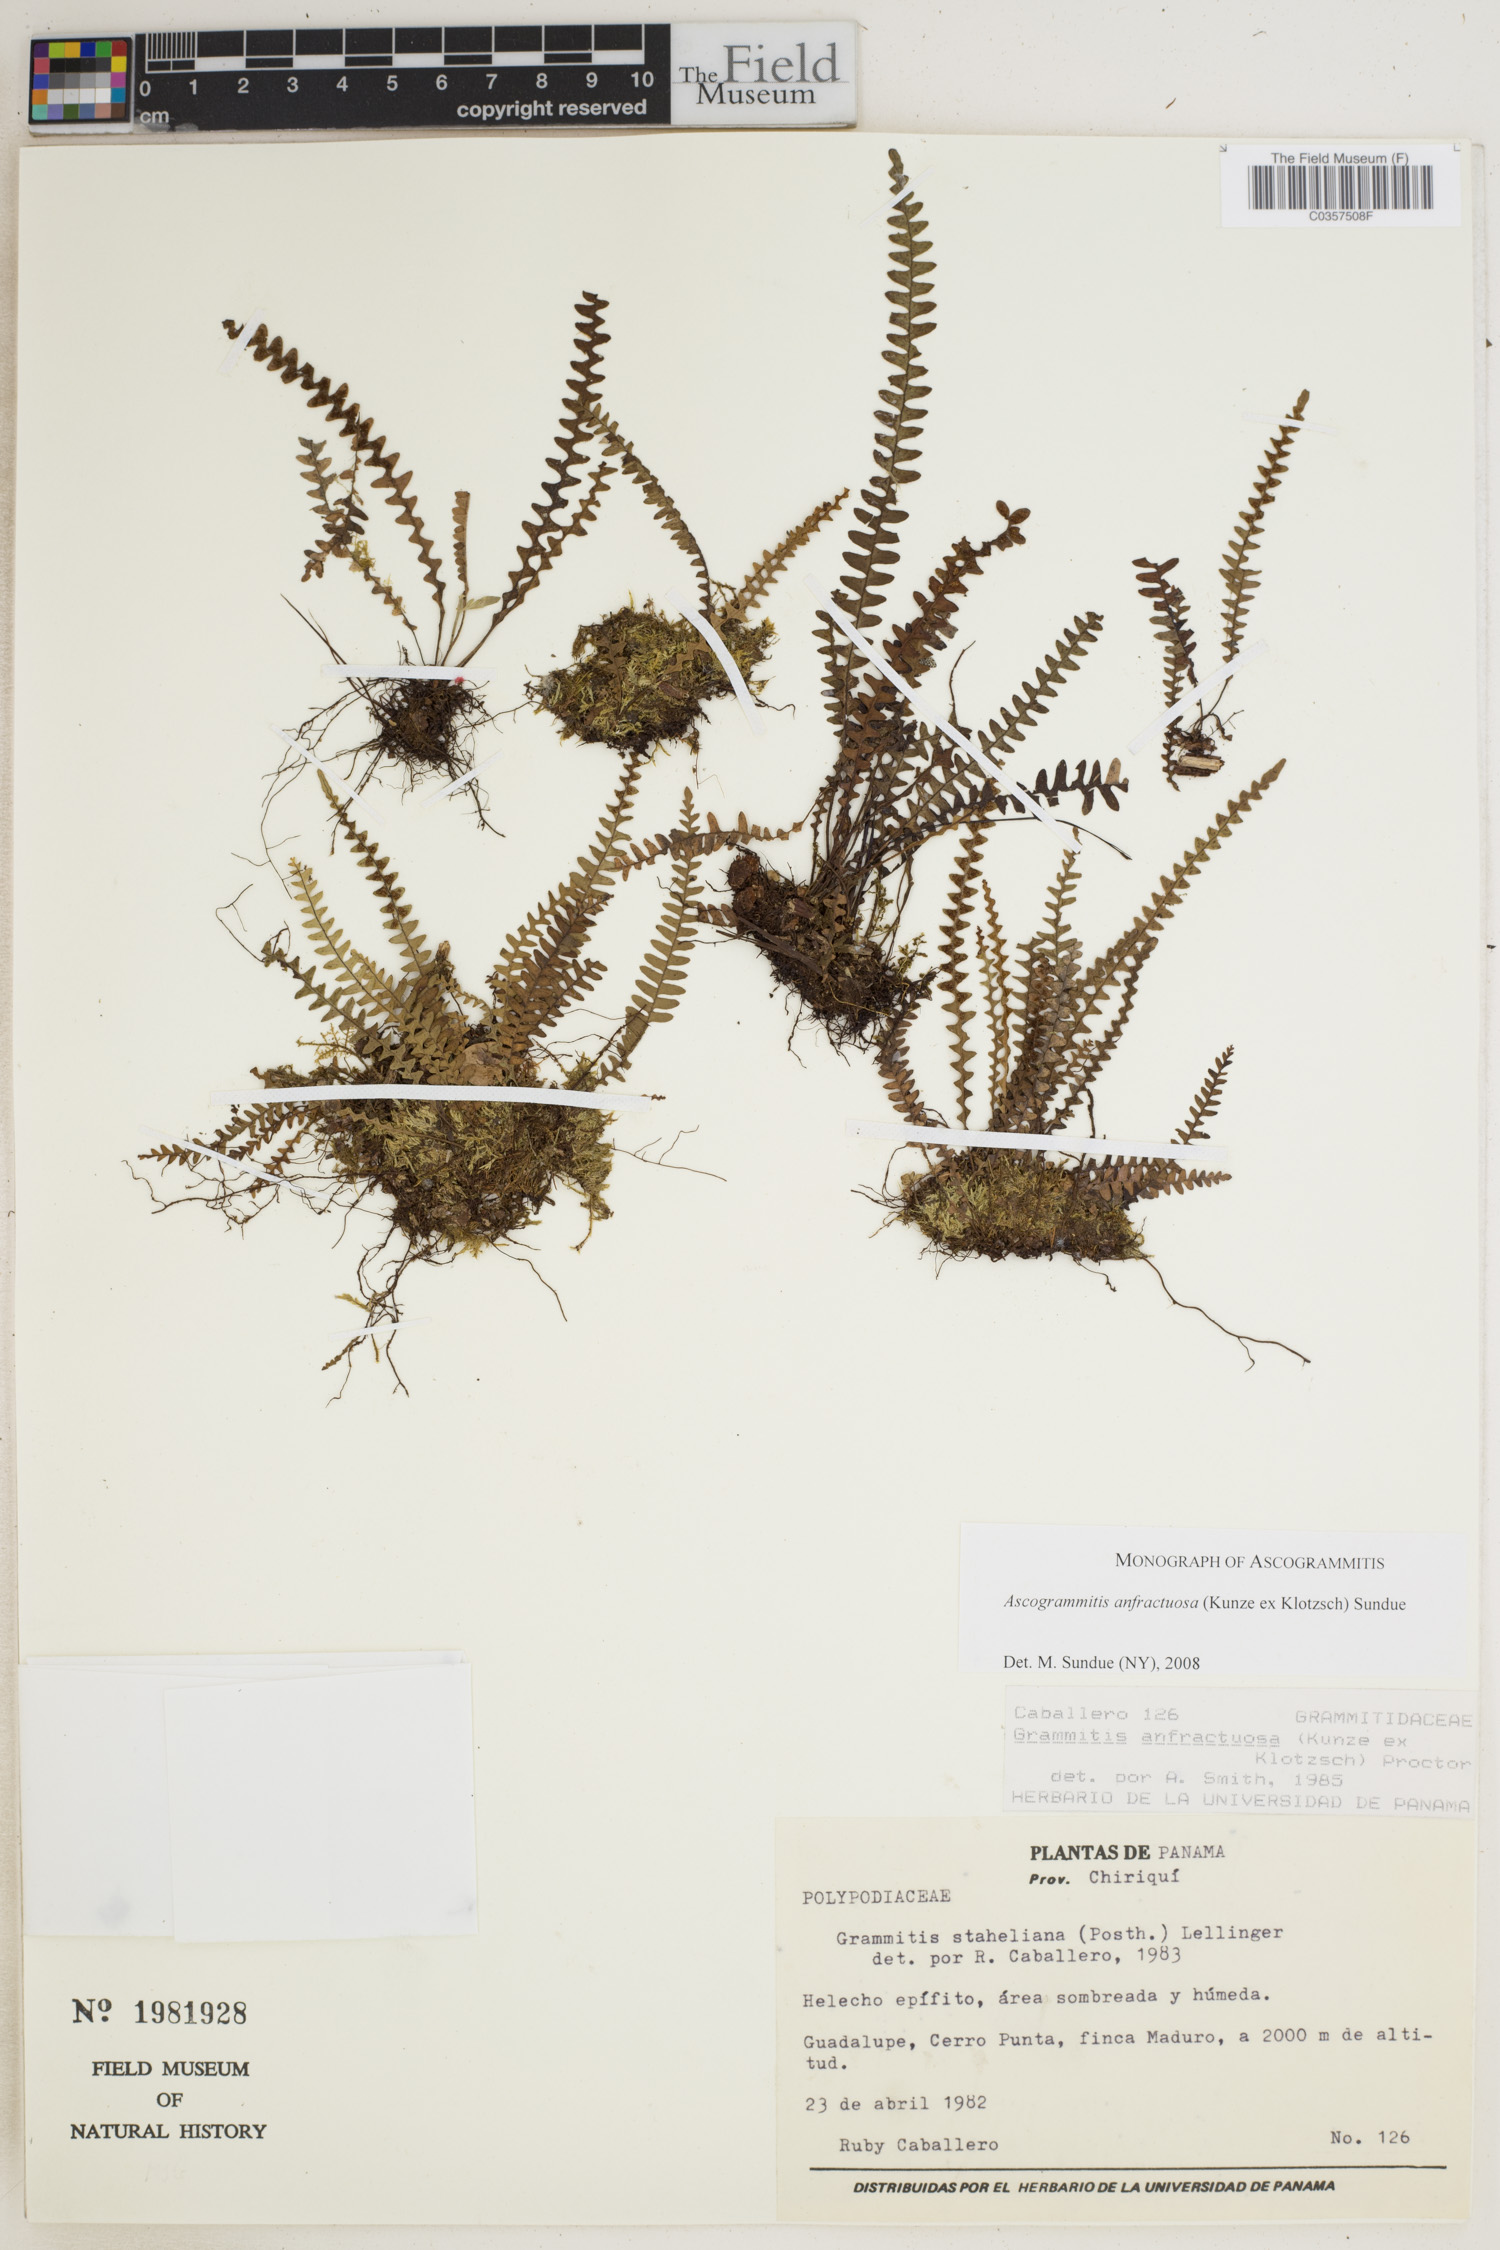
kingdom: Plantae
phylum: Tracheophyta
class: Polypodiopsida
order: Polypodiales
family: Polypodiaceae
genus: Ascogrammitis
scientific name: Ascogrammitis anfractuosa
